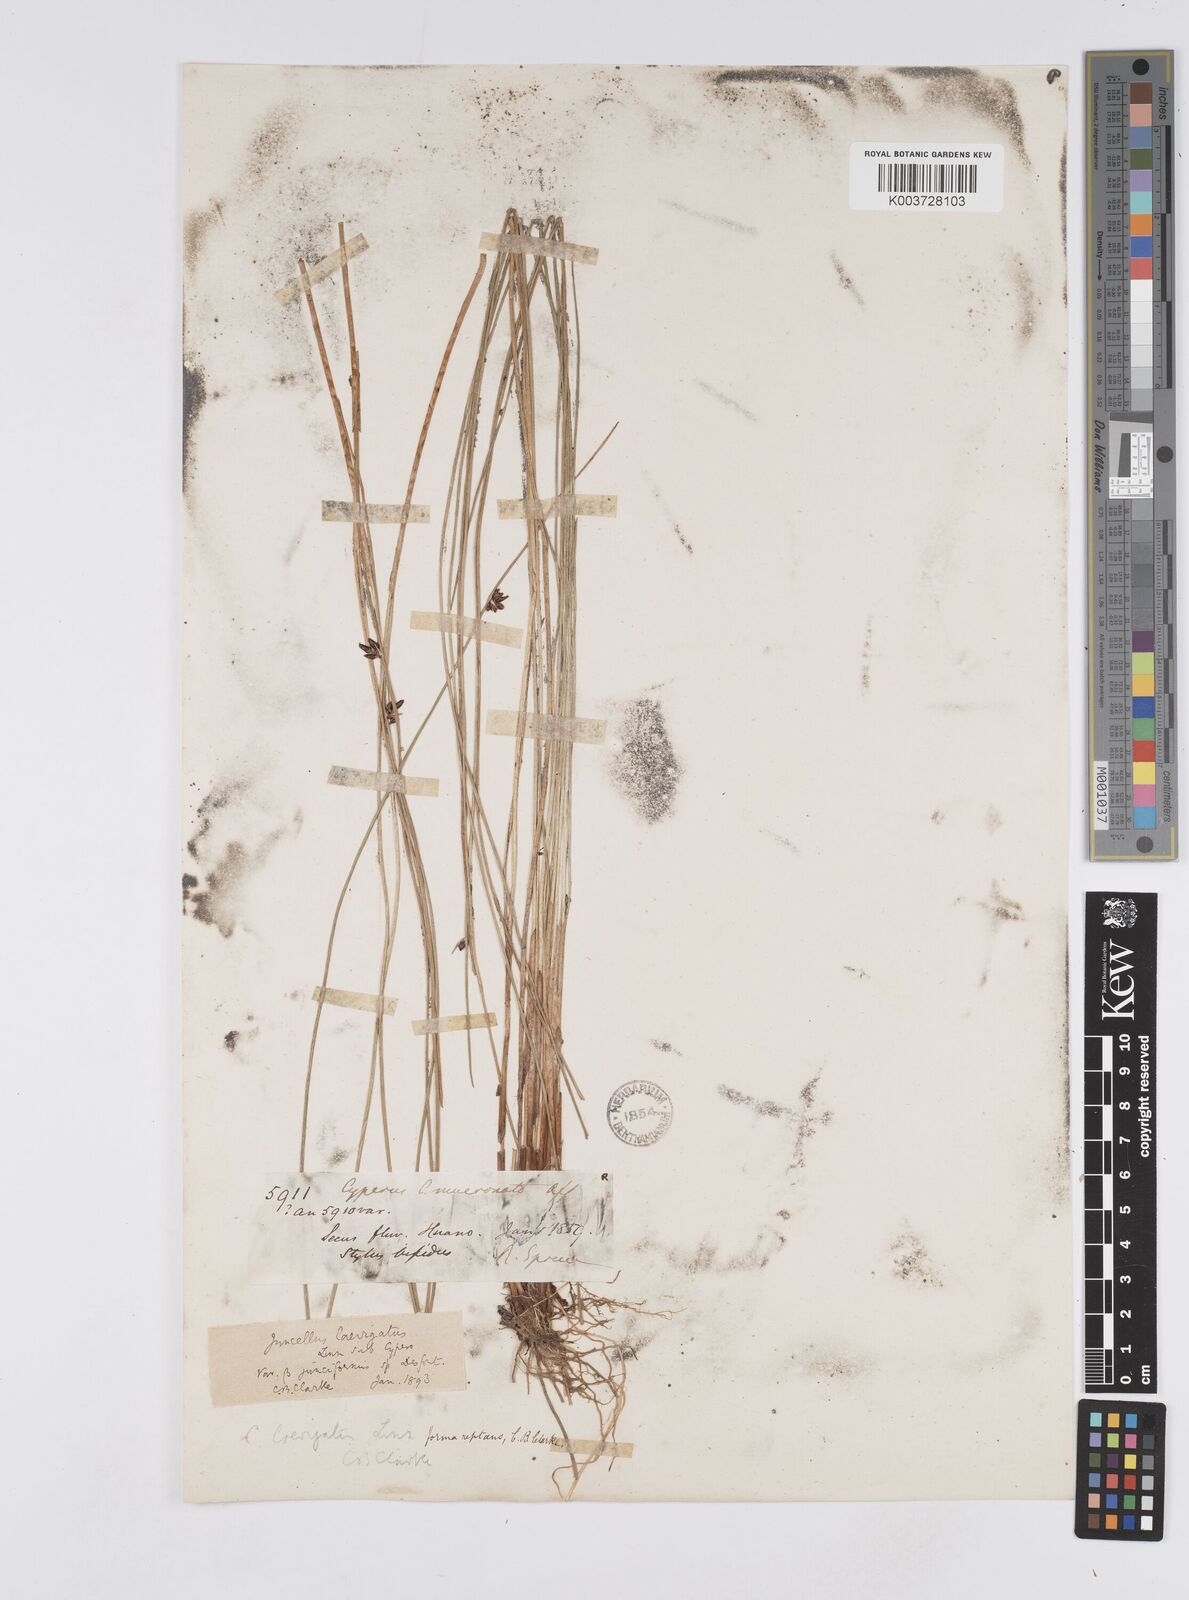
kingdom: Plantae
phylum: Tracheophyta
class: Liliopsida
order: Poales
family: Cyperaceae
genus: Cyperus
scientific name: Cyperus laevigatus
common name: Smooth flat sedge
